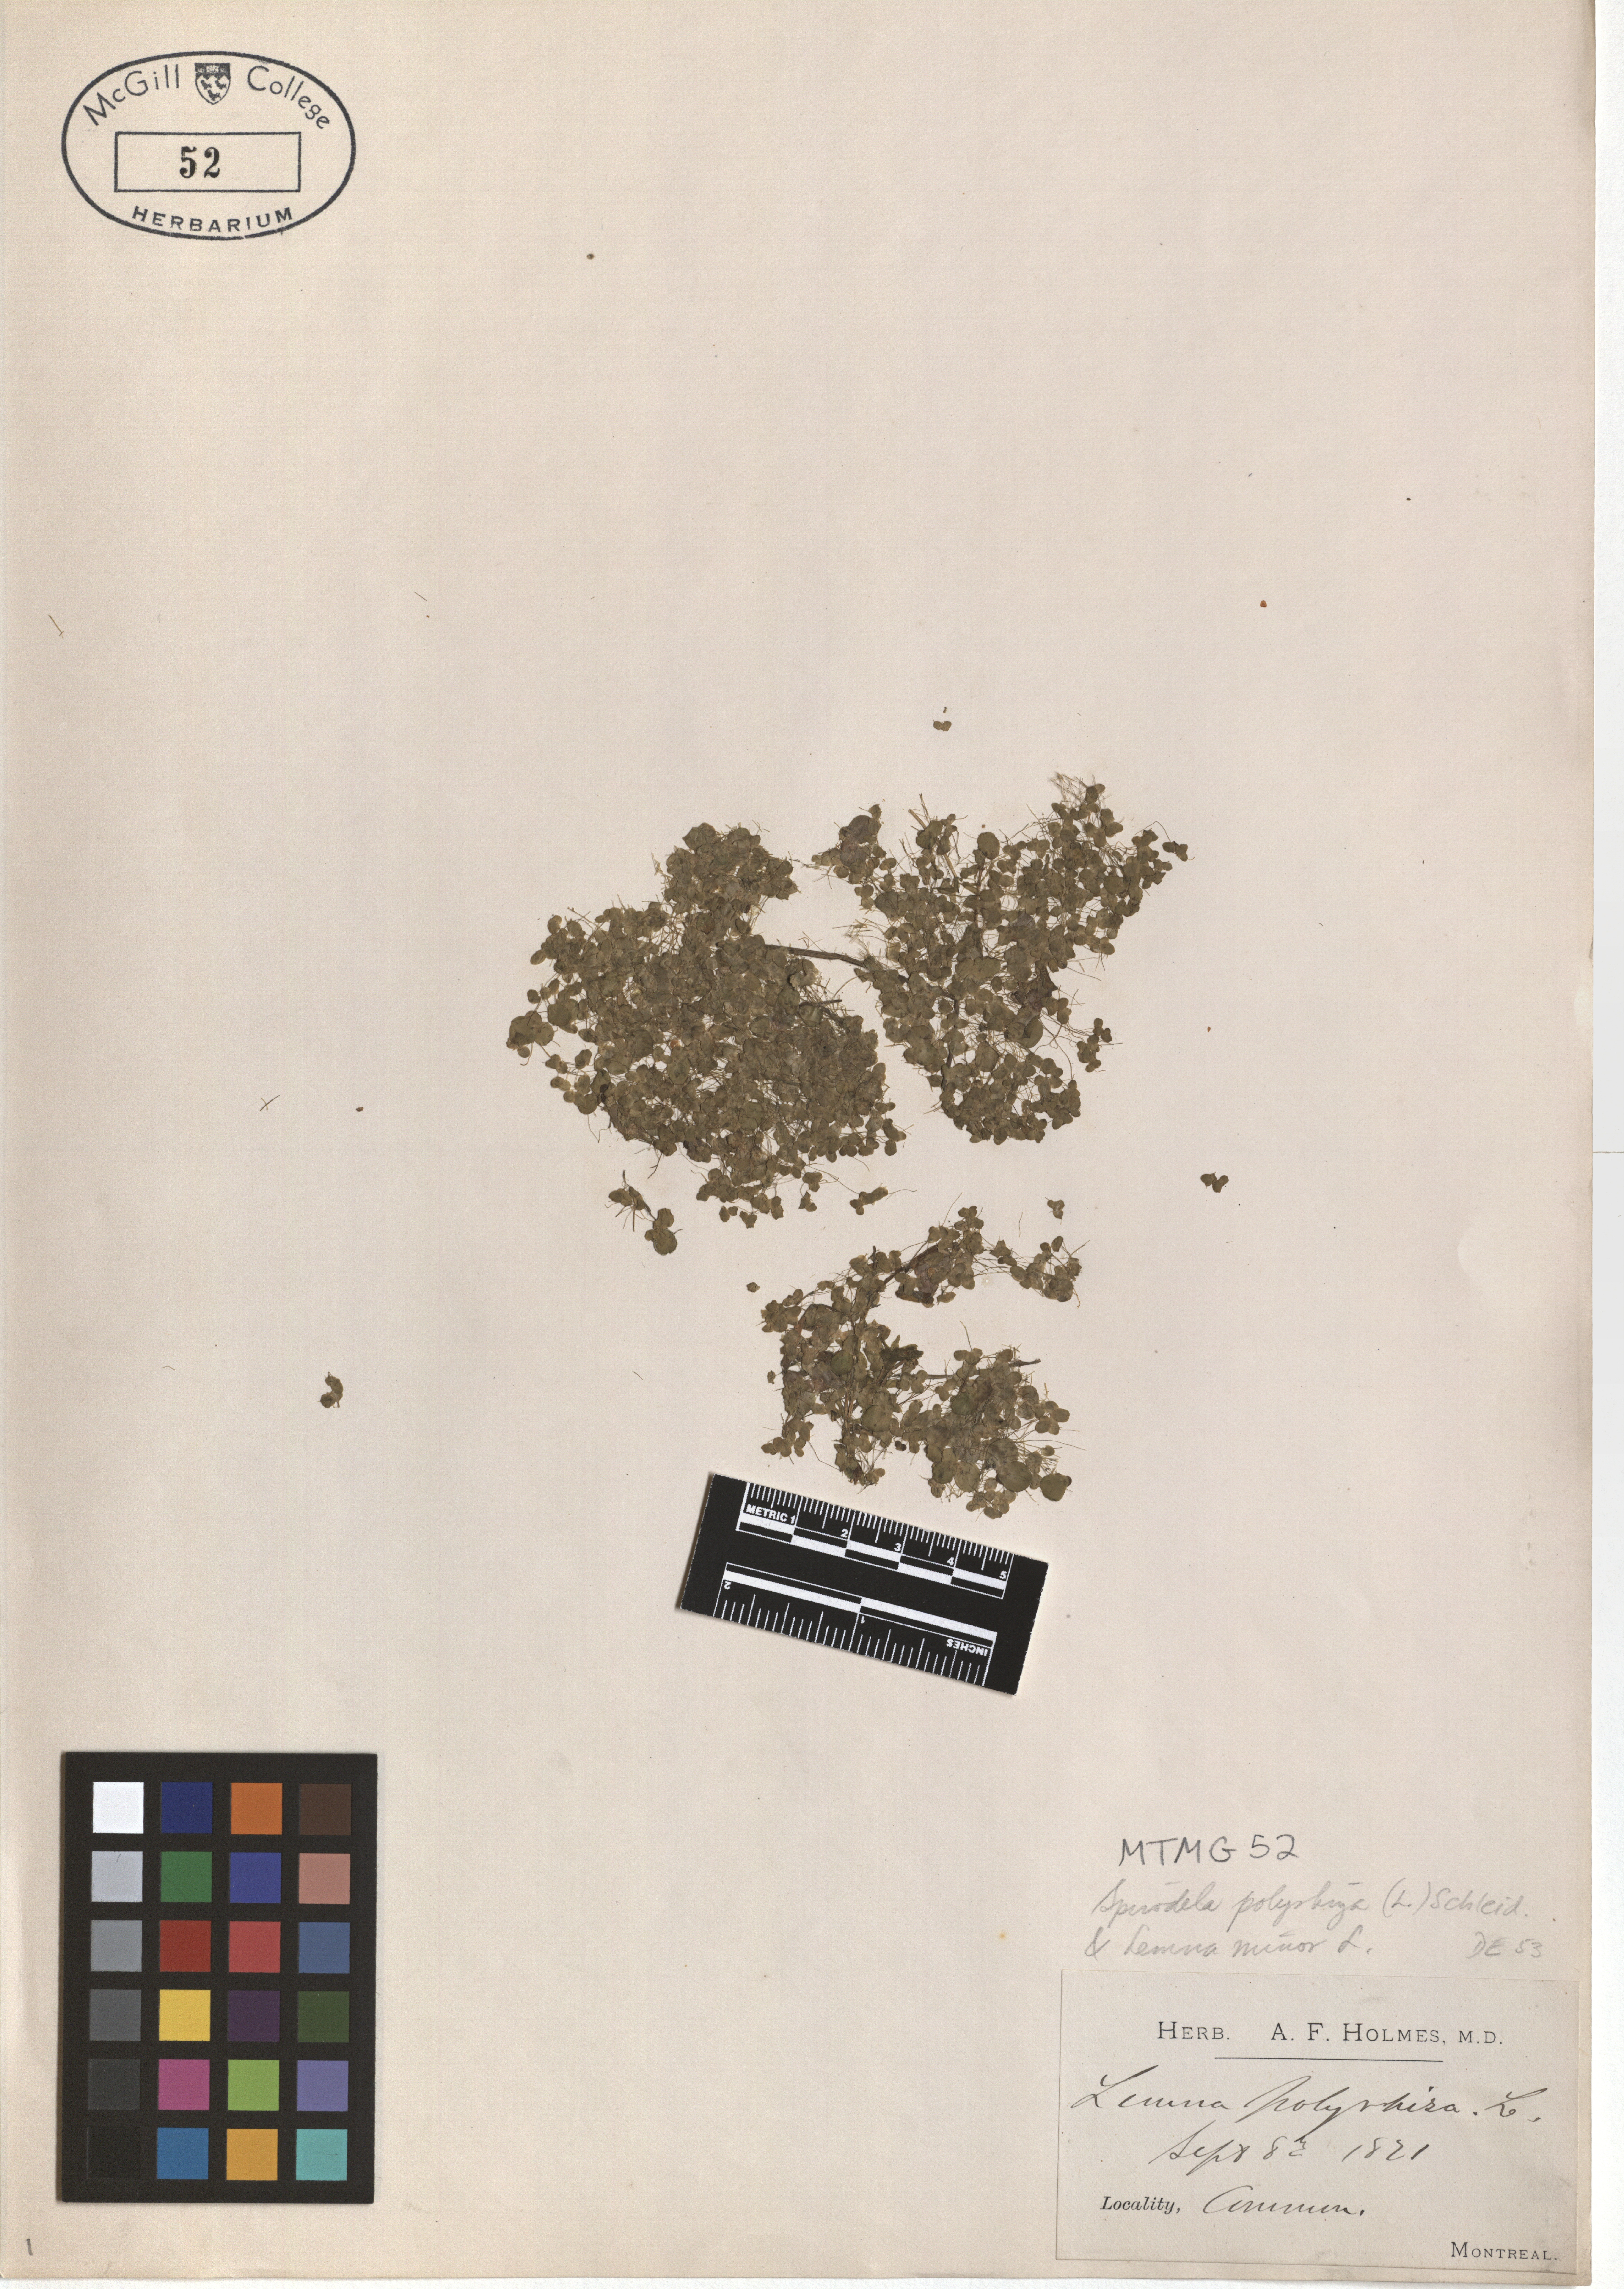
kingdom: Plantae
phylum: Tracheophyta
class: Liliopsida
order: Alismatales
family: Araceae
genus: Spirodela
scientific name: Spirodela polyrhiza
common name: Great duckweed
